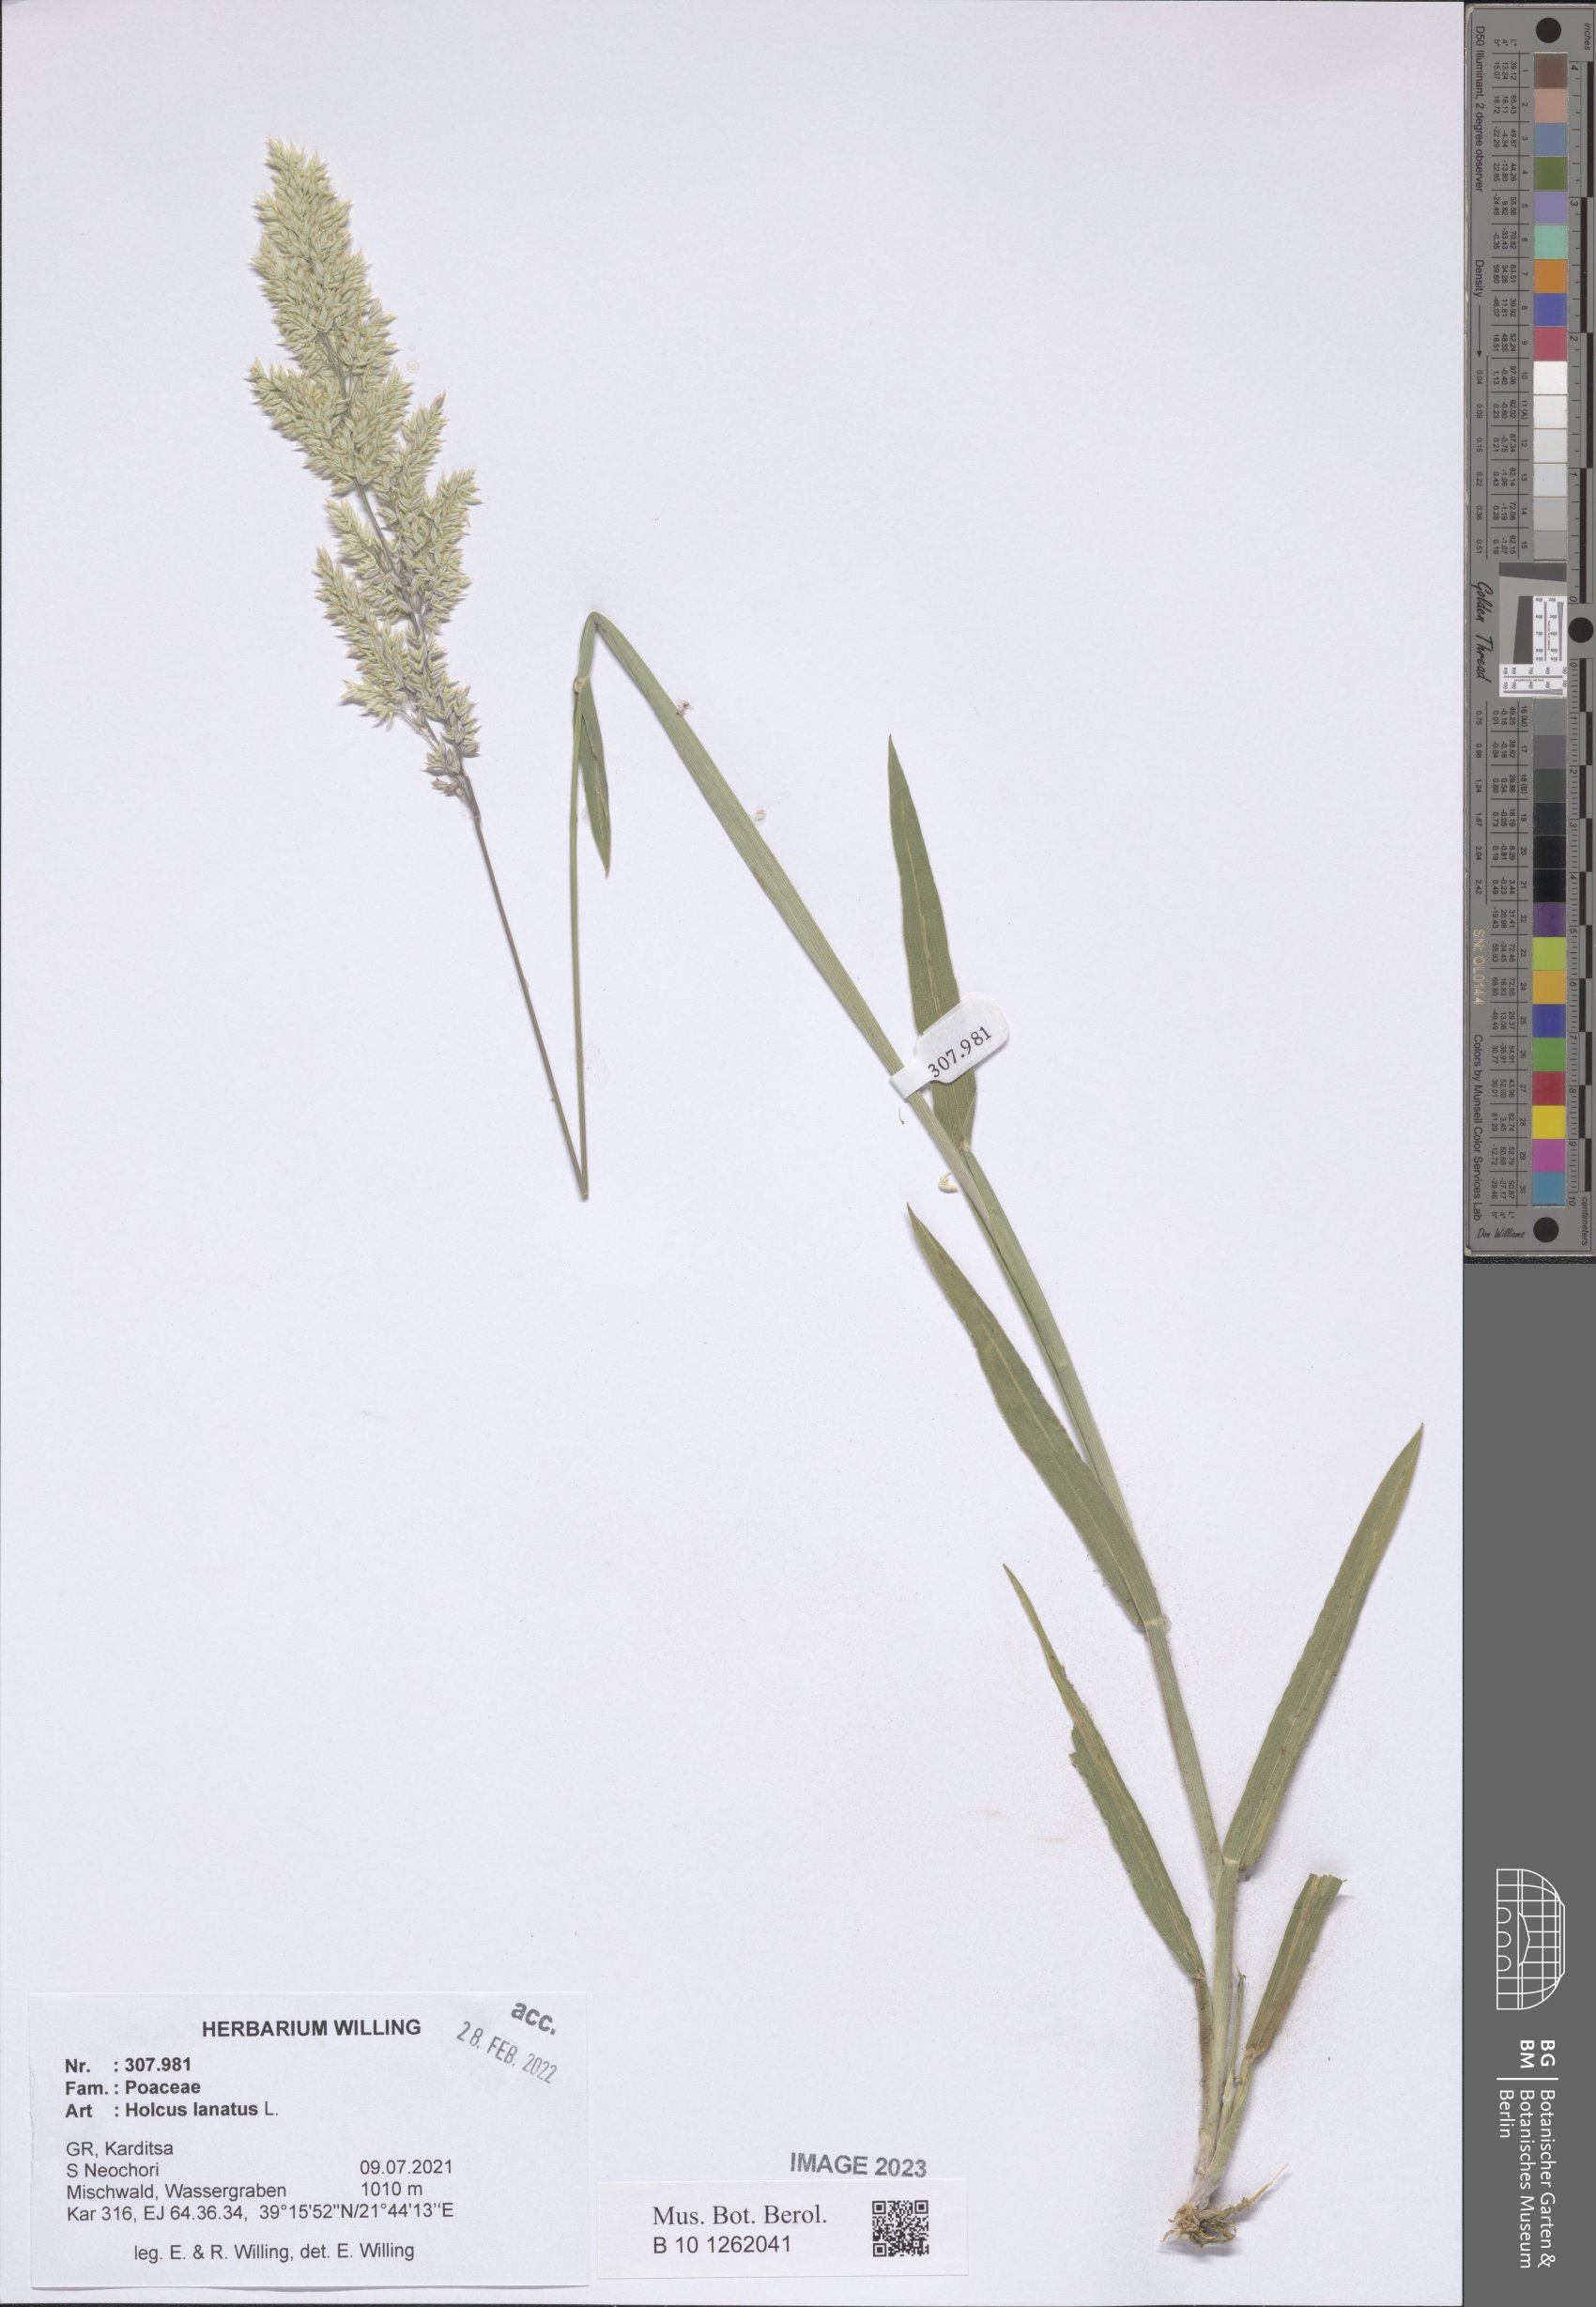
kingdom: Plantae
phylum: Tracheophyta
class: Liliopsida
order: Poales
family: Poaceae
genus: Holcus
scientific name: Holcus lanatus
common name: Yorkshire-fog
